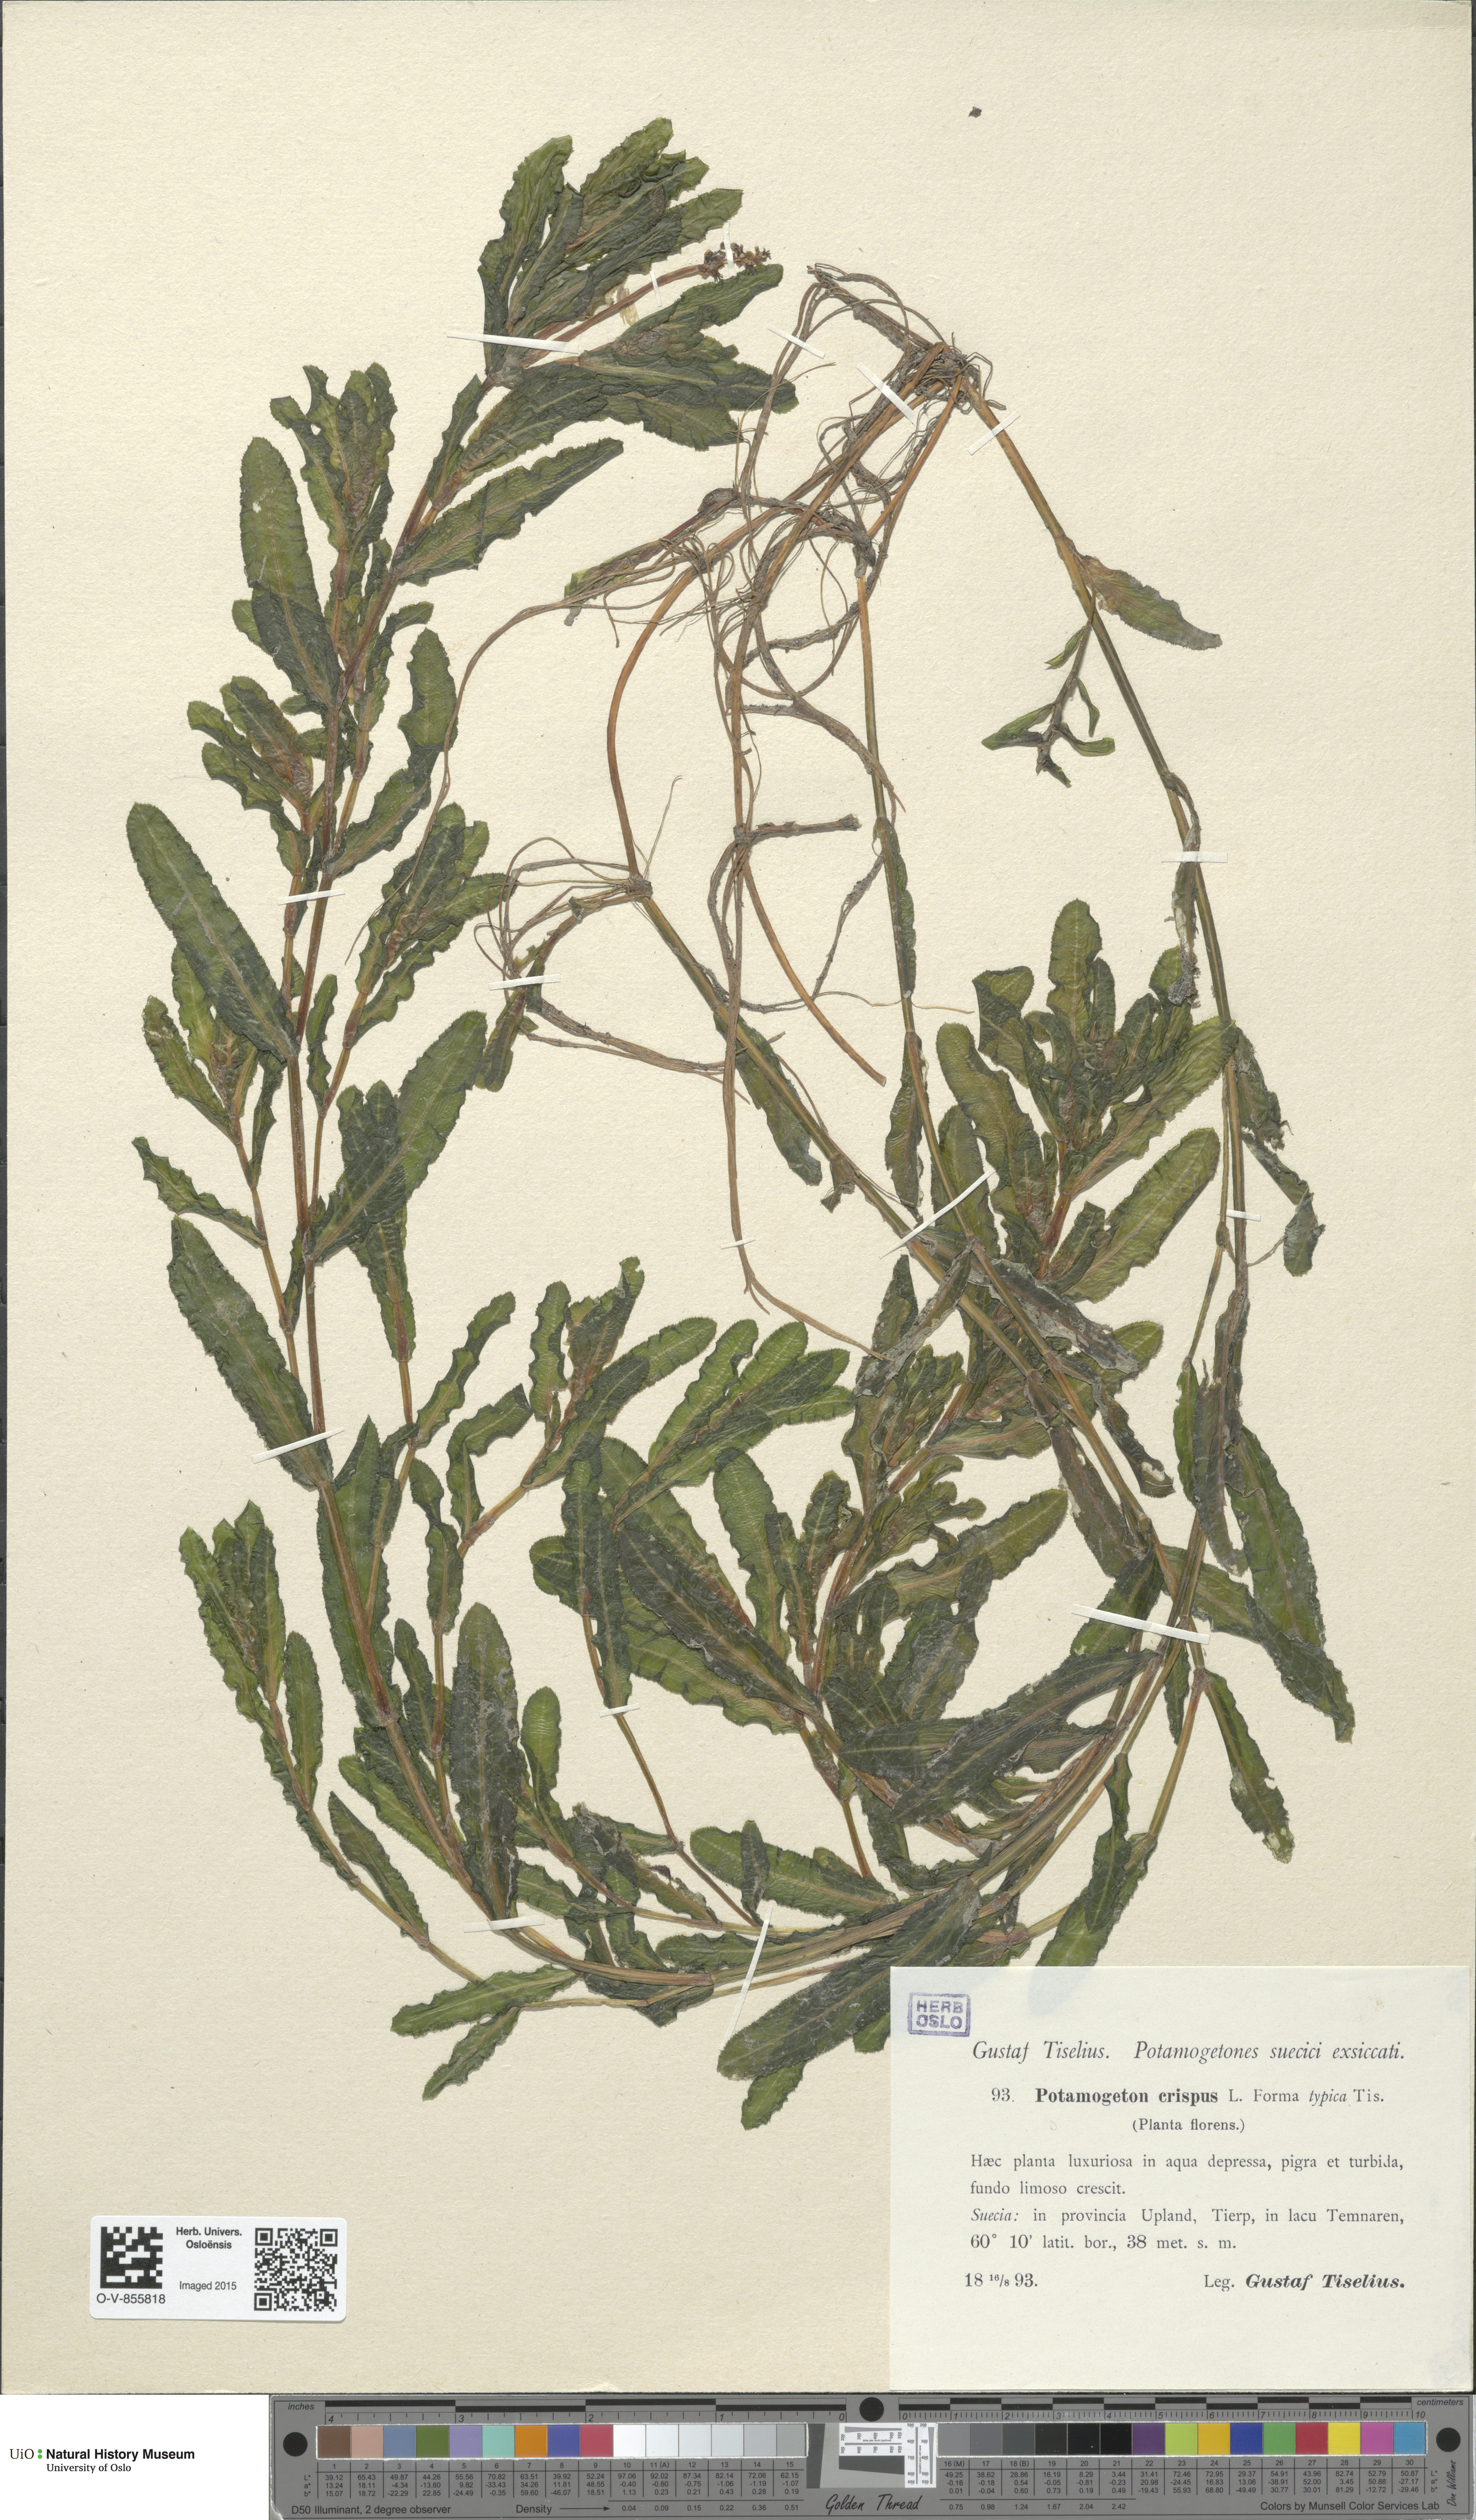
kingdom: Plantae
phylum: Tracheophyta
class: Liliopsida
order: Alismatales
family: Potamogetonaceae
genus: Potamogeton
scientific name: Potamogeton crispus
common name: Curled pondweed
